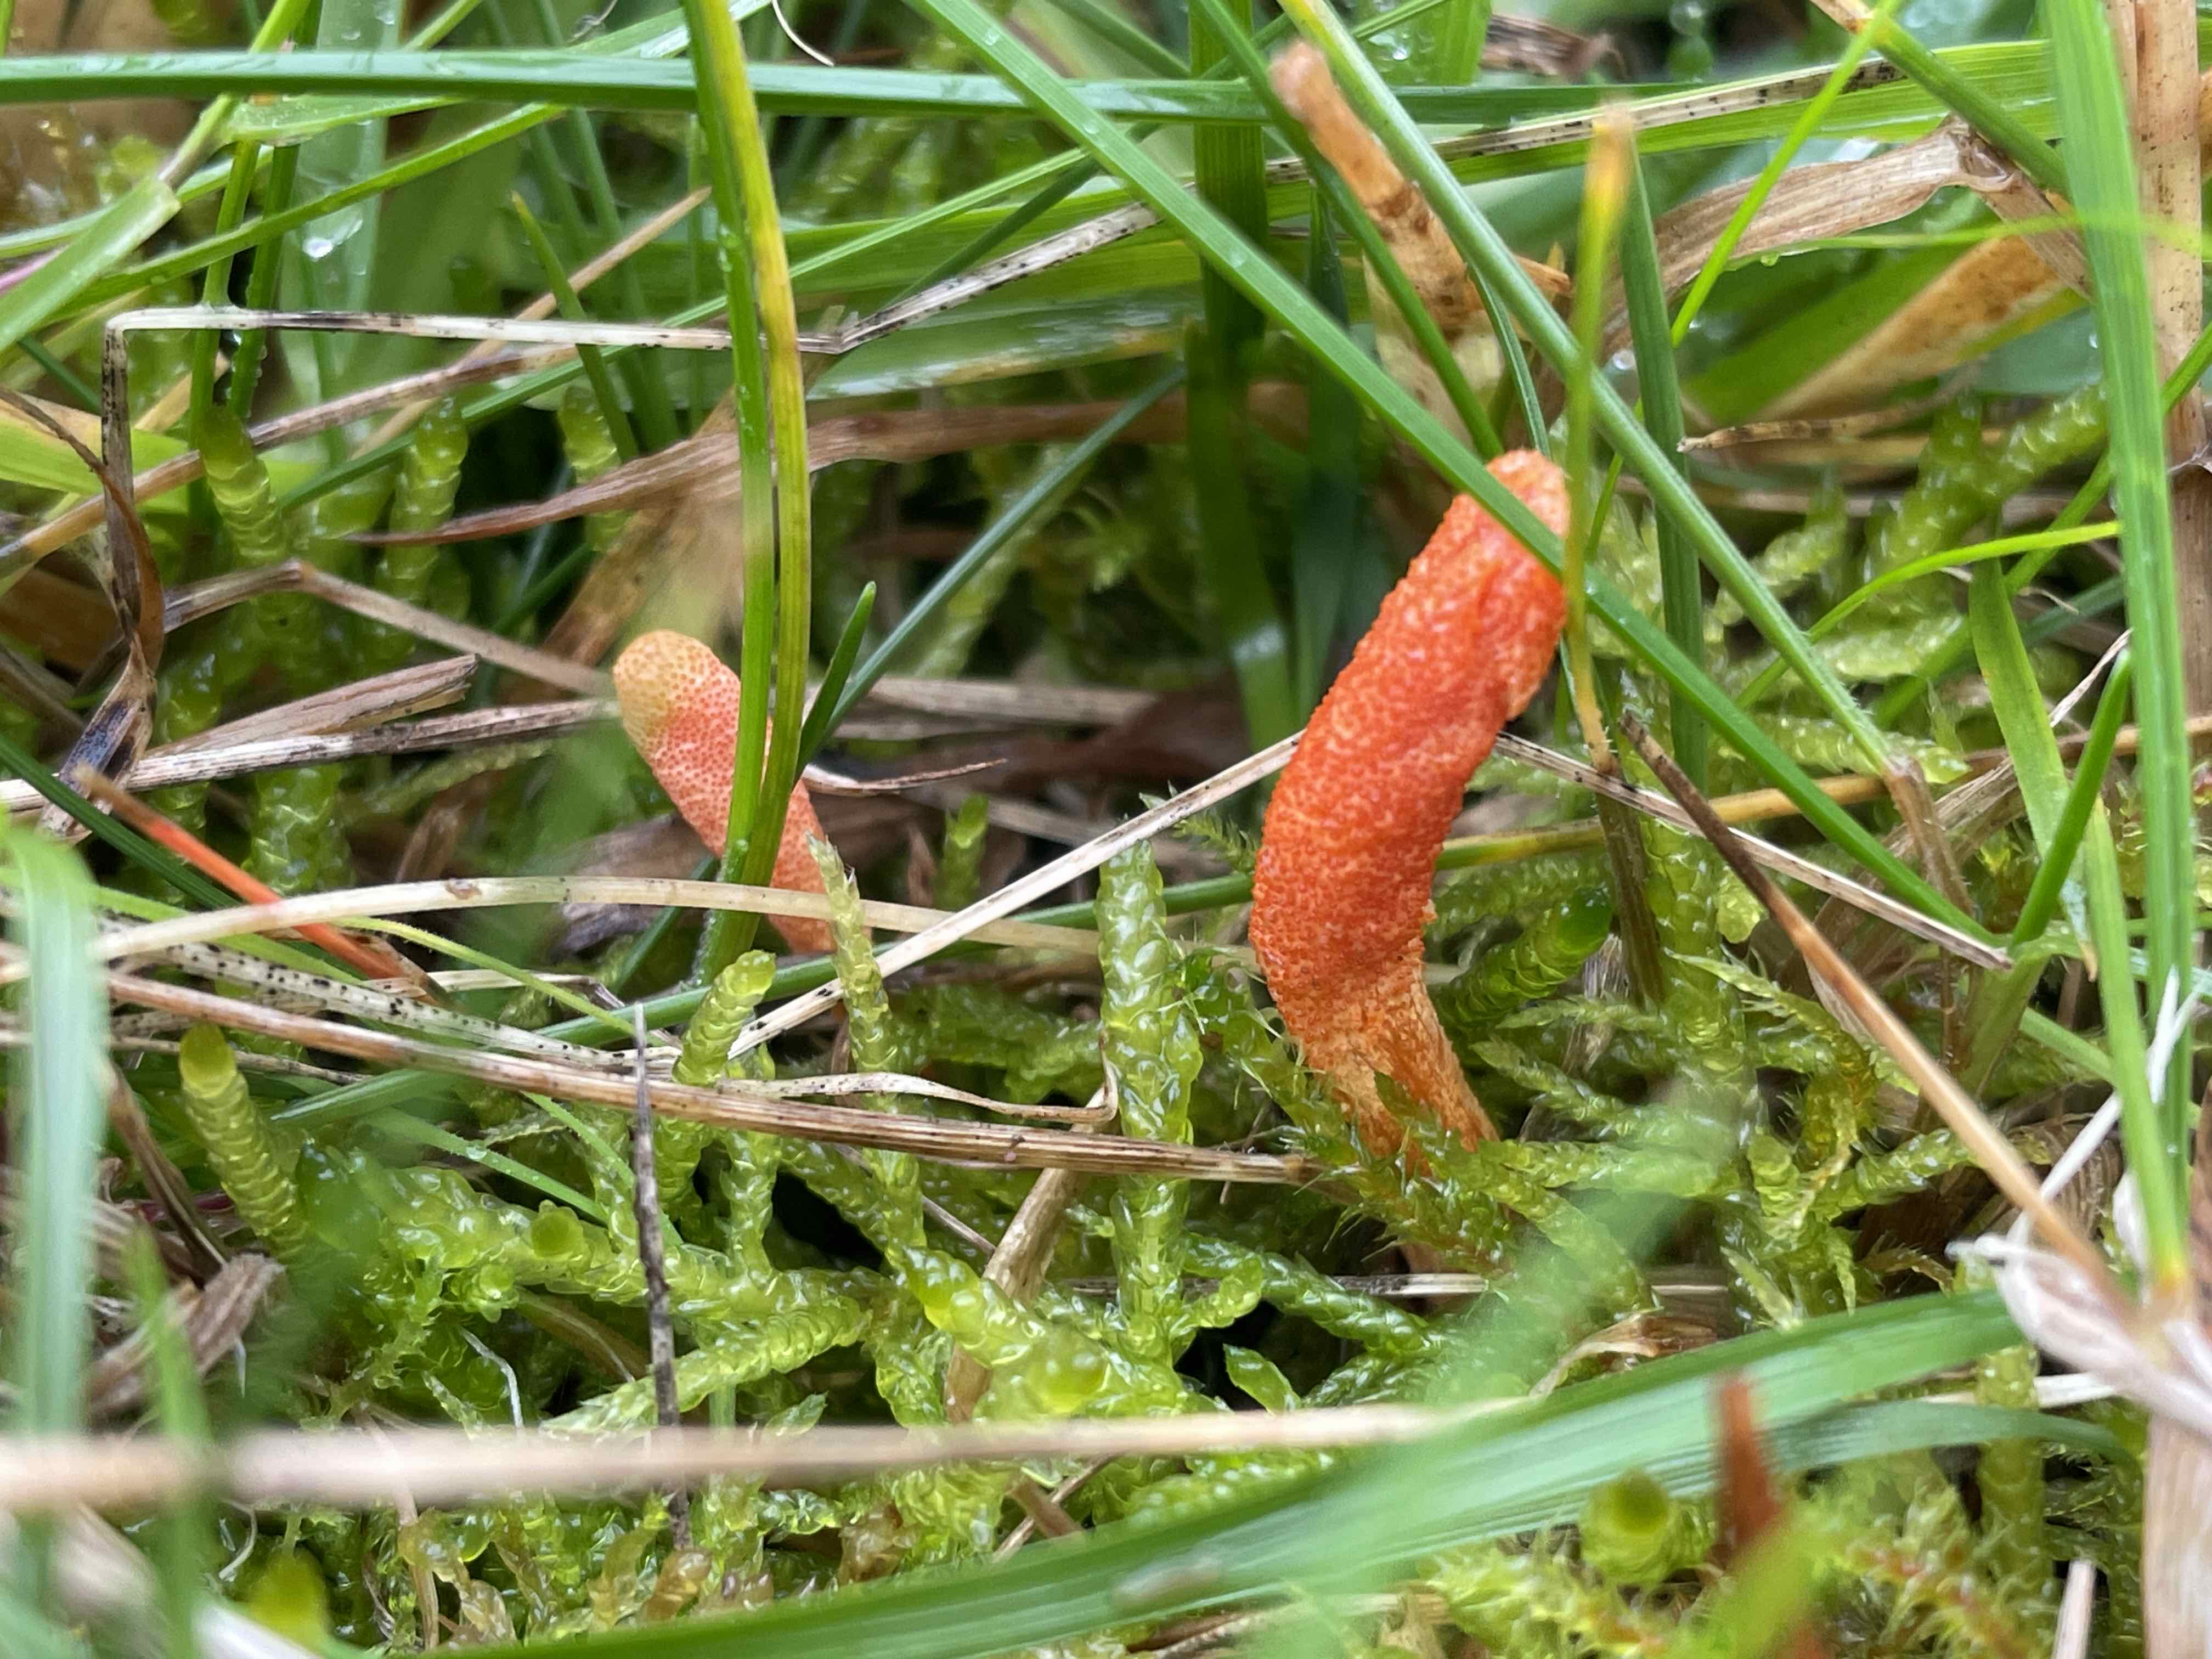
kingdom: Fungi
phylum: Ascomycota
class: Sordariomycetes
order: Hypocreales
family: Cordycipitaceae
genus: Cordyceps
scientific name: Cordyceps militaris
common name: puppe-snyltekølle
